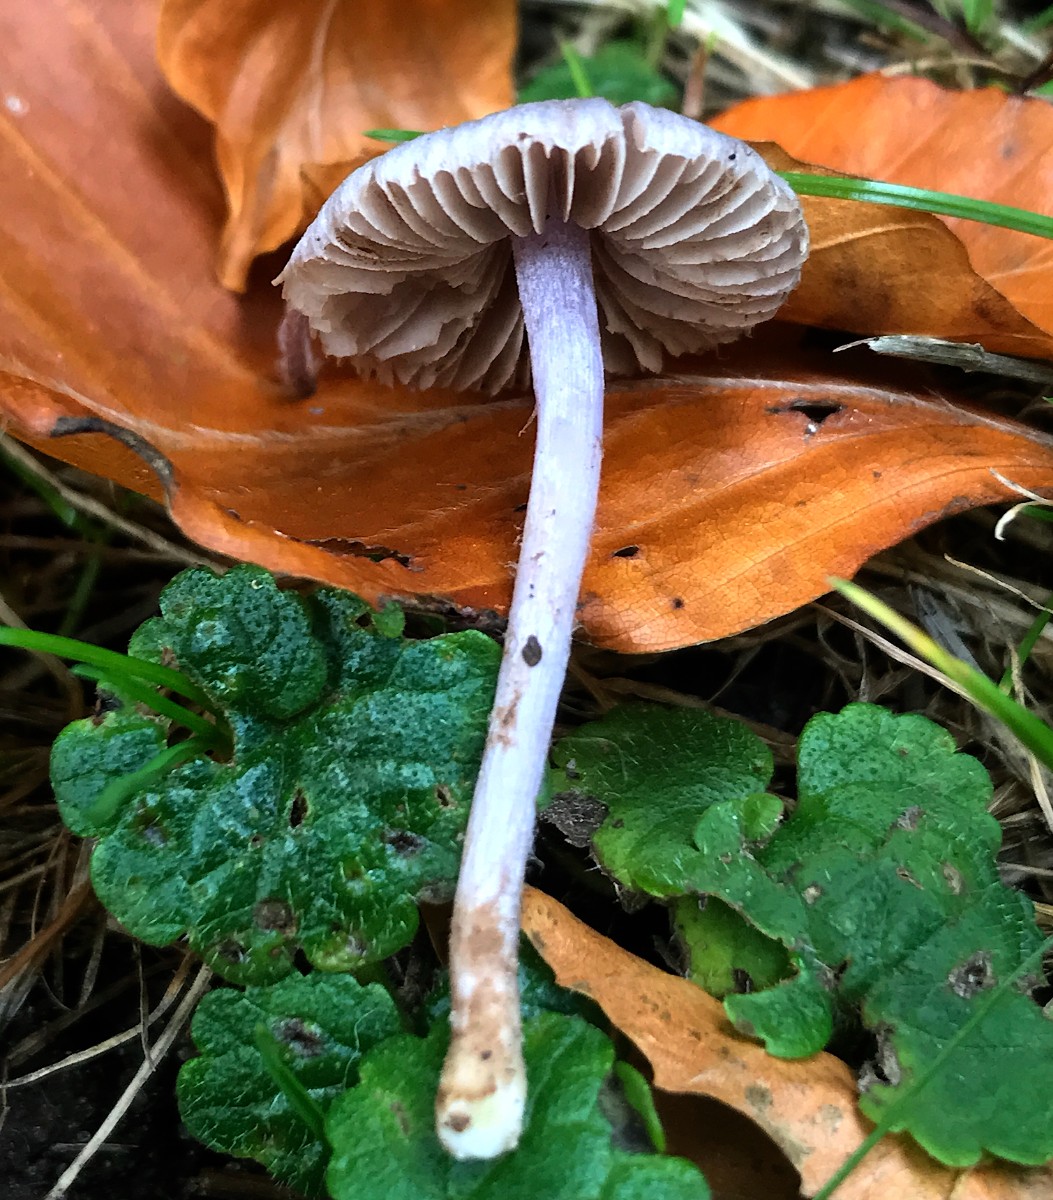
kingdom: Fungi
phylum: Basidiomycota
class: Agaricomycetes
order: Agaricales
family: Inocybaceae
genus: Inocybe
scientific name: Inocybe geophylla
